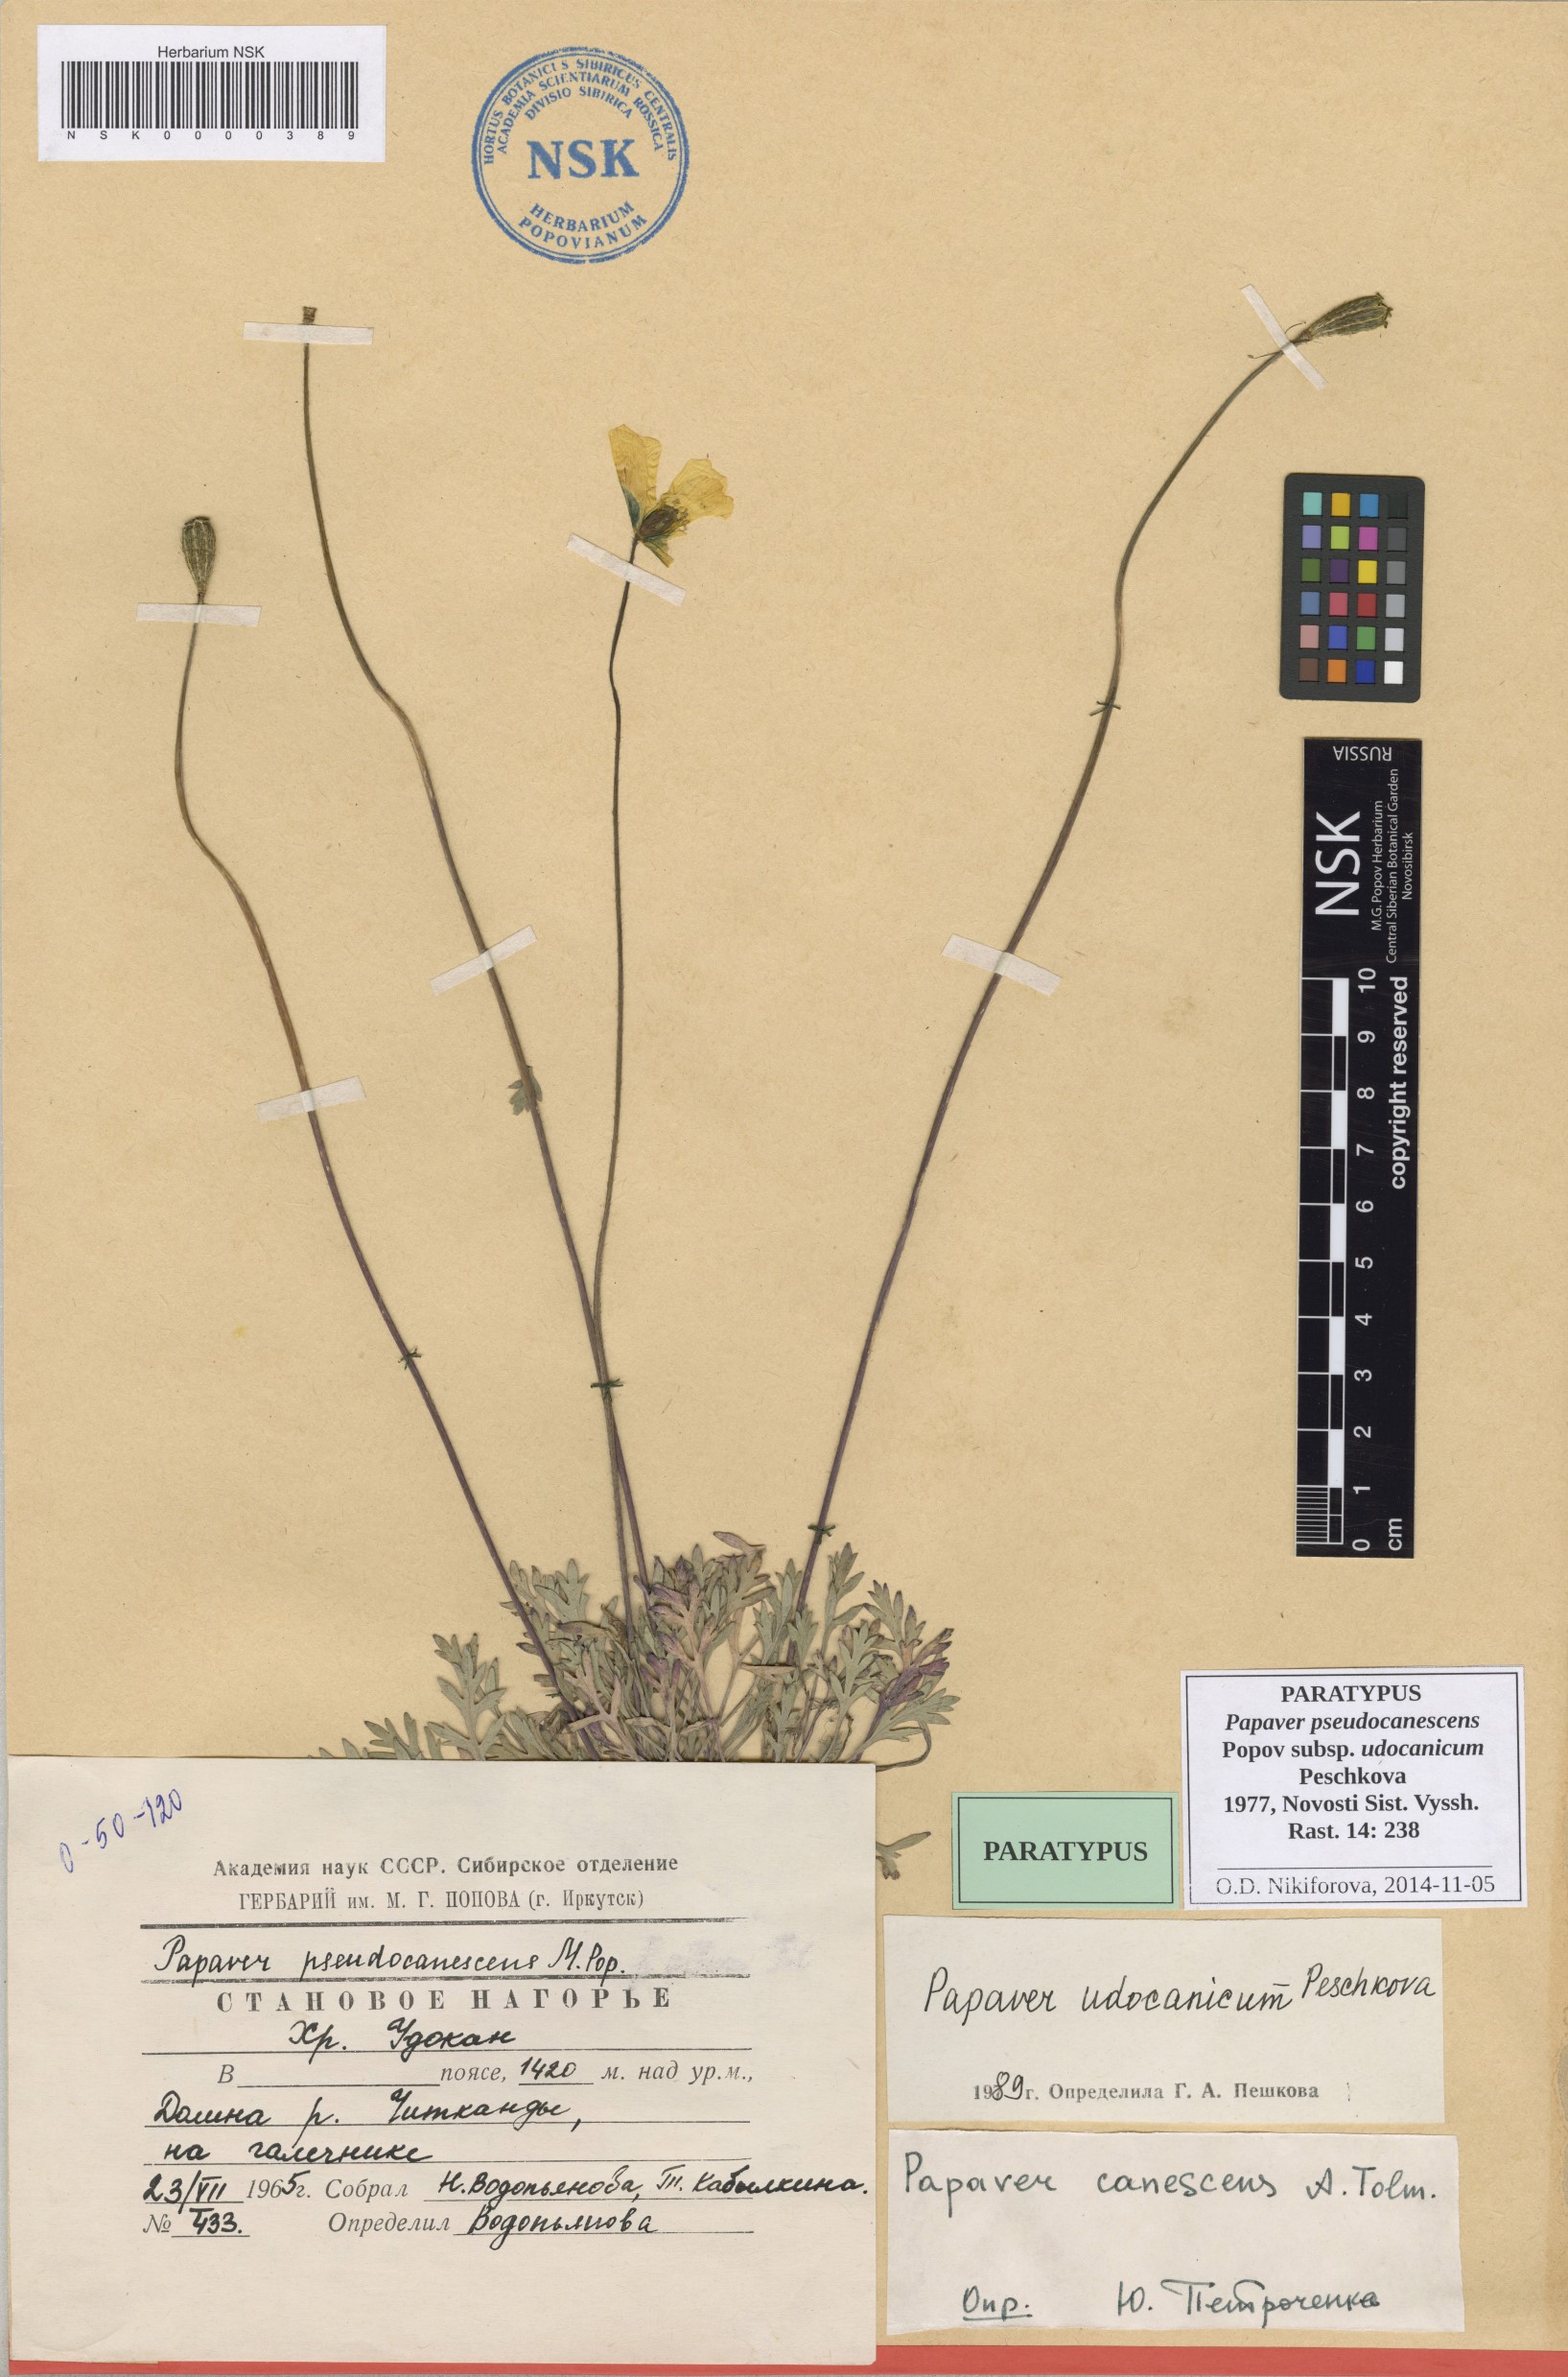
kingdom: Plantae
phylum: Tracheophyta
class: Magnoliopsida
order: Ranunculales
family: Papaveraceae
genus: Papaver
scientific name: Papaver udocanicum
